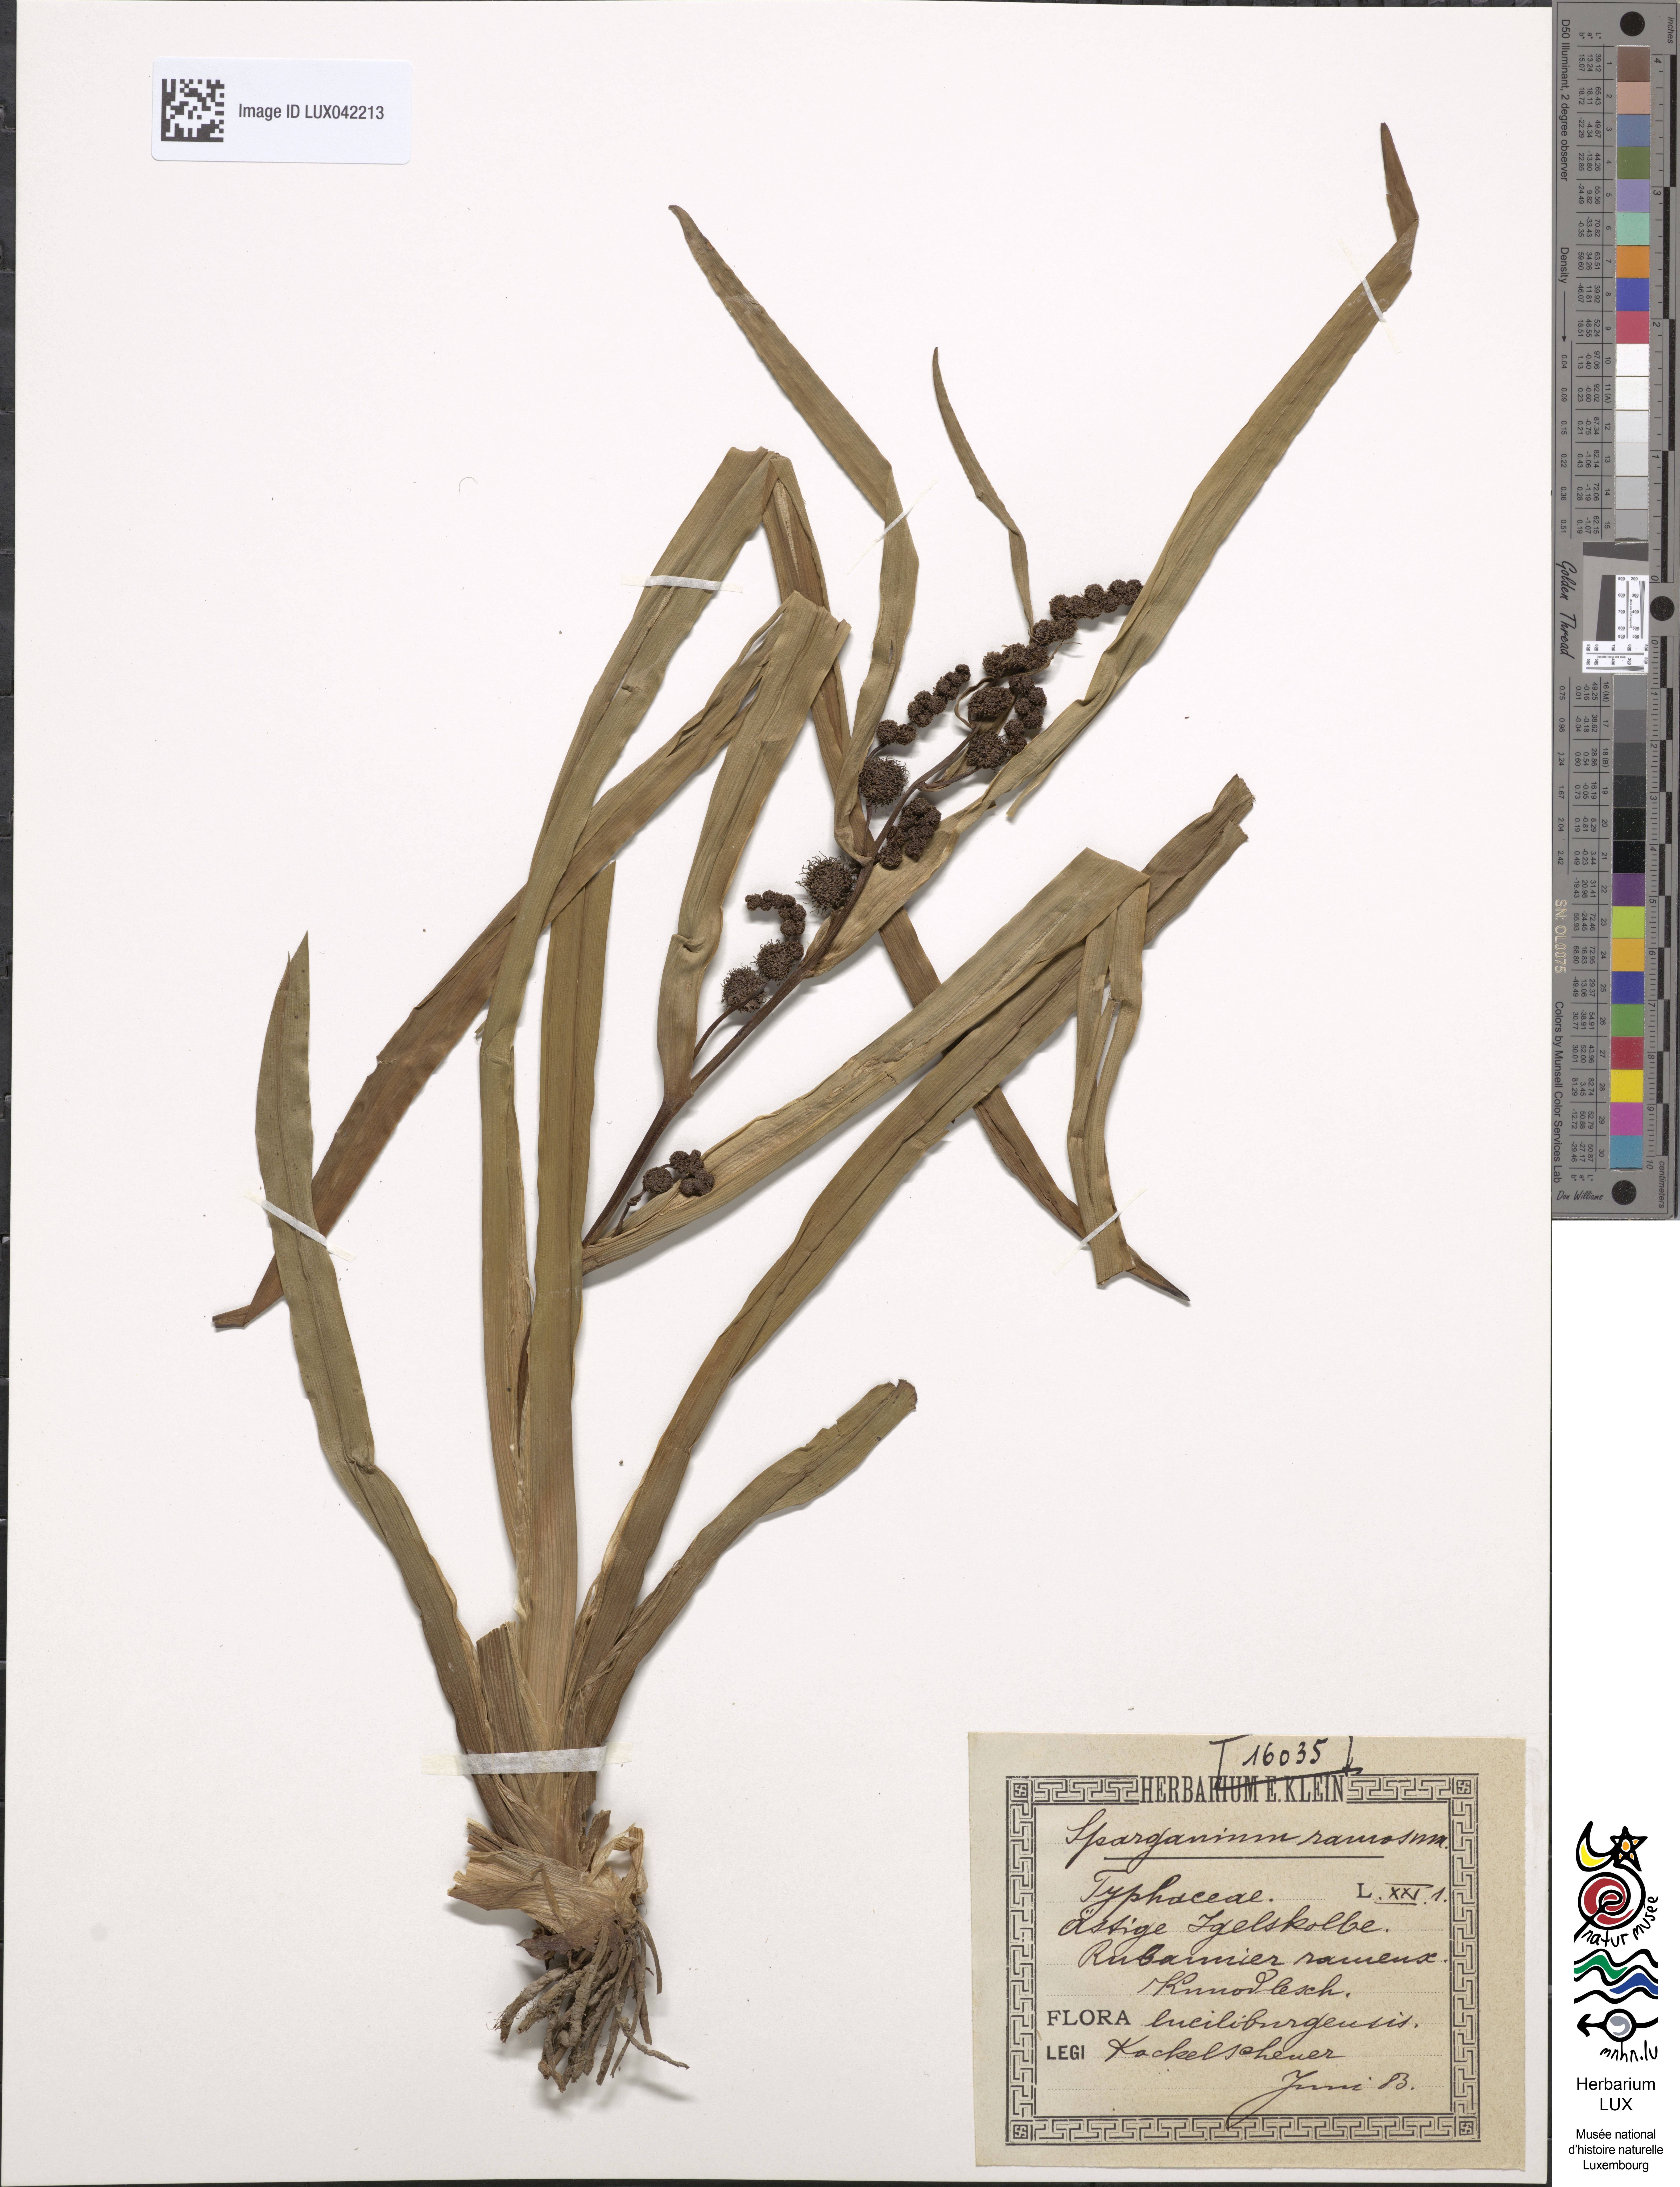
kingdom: Plantae
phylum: Tracheophyta
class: Liliopsida
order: Poales
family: Typhaceae
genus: Sparganium
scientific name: Sparganium erectum
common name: Branched bur-reed
